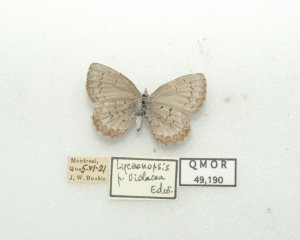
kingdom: Animalia
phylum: Arthropoda
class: Insecta
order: Lepidoptera
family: Lycaenidae
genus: Celastrina
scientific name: Celastrina lucia
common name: Northern Spring Azure
